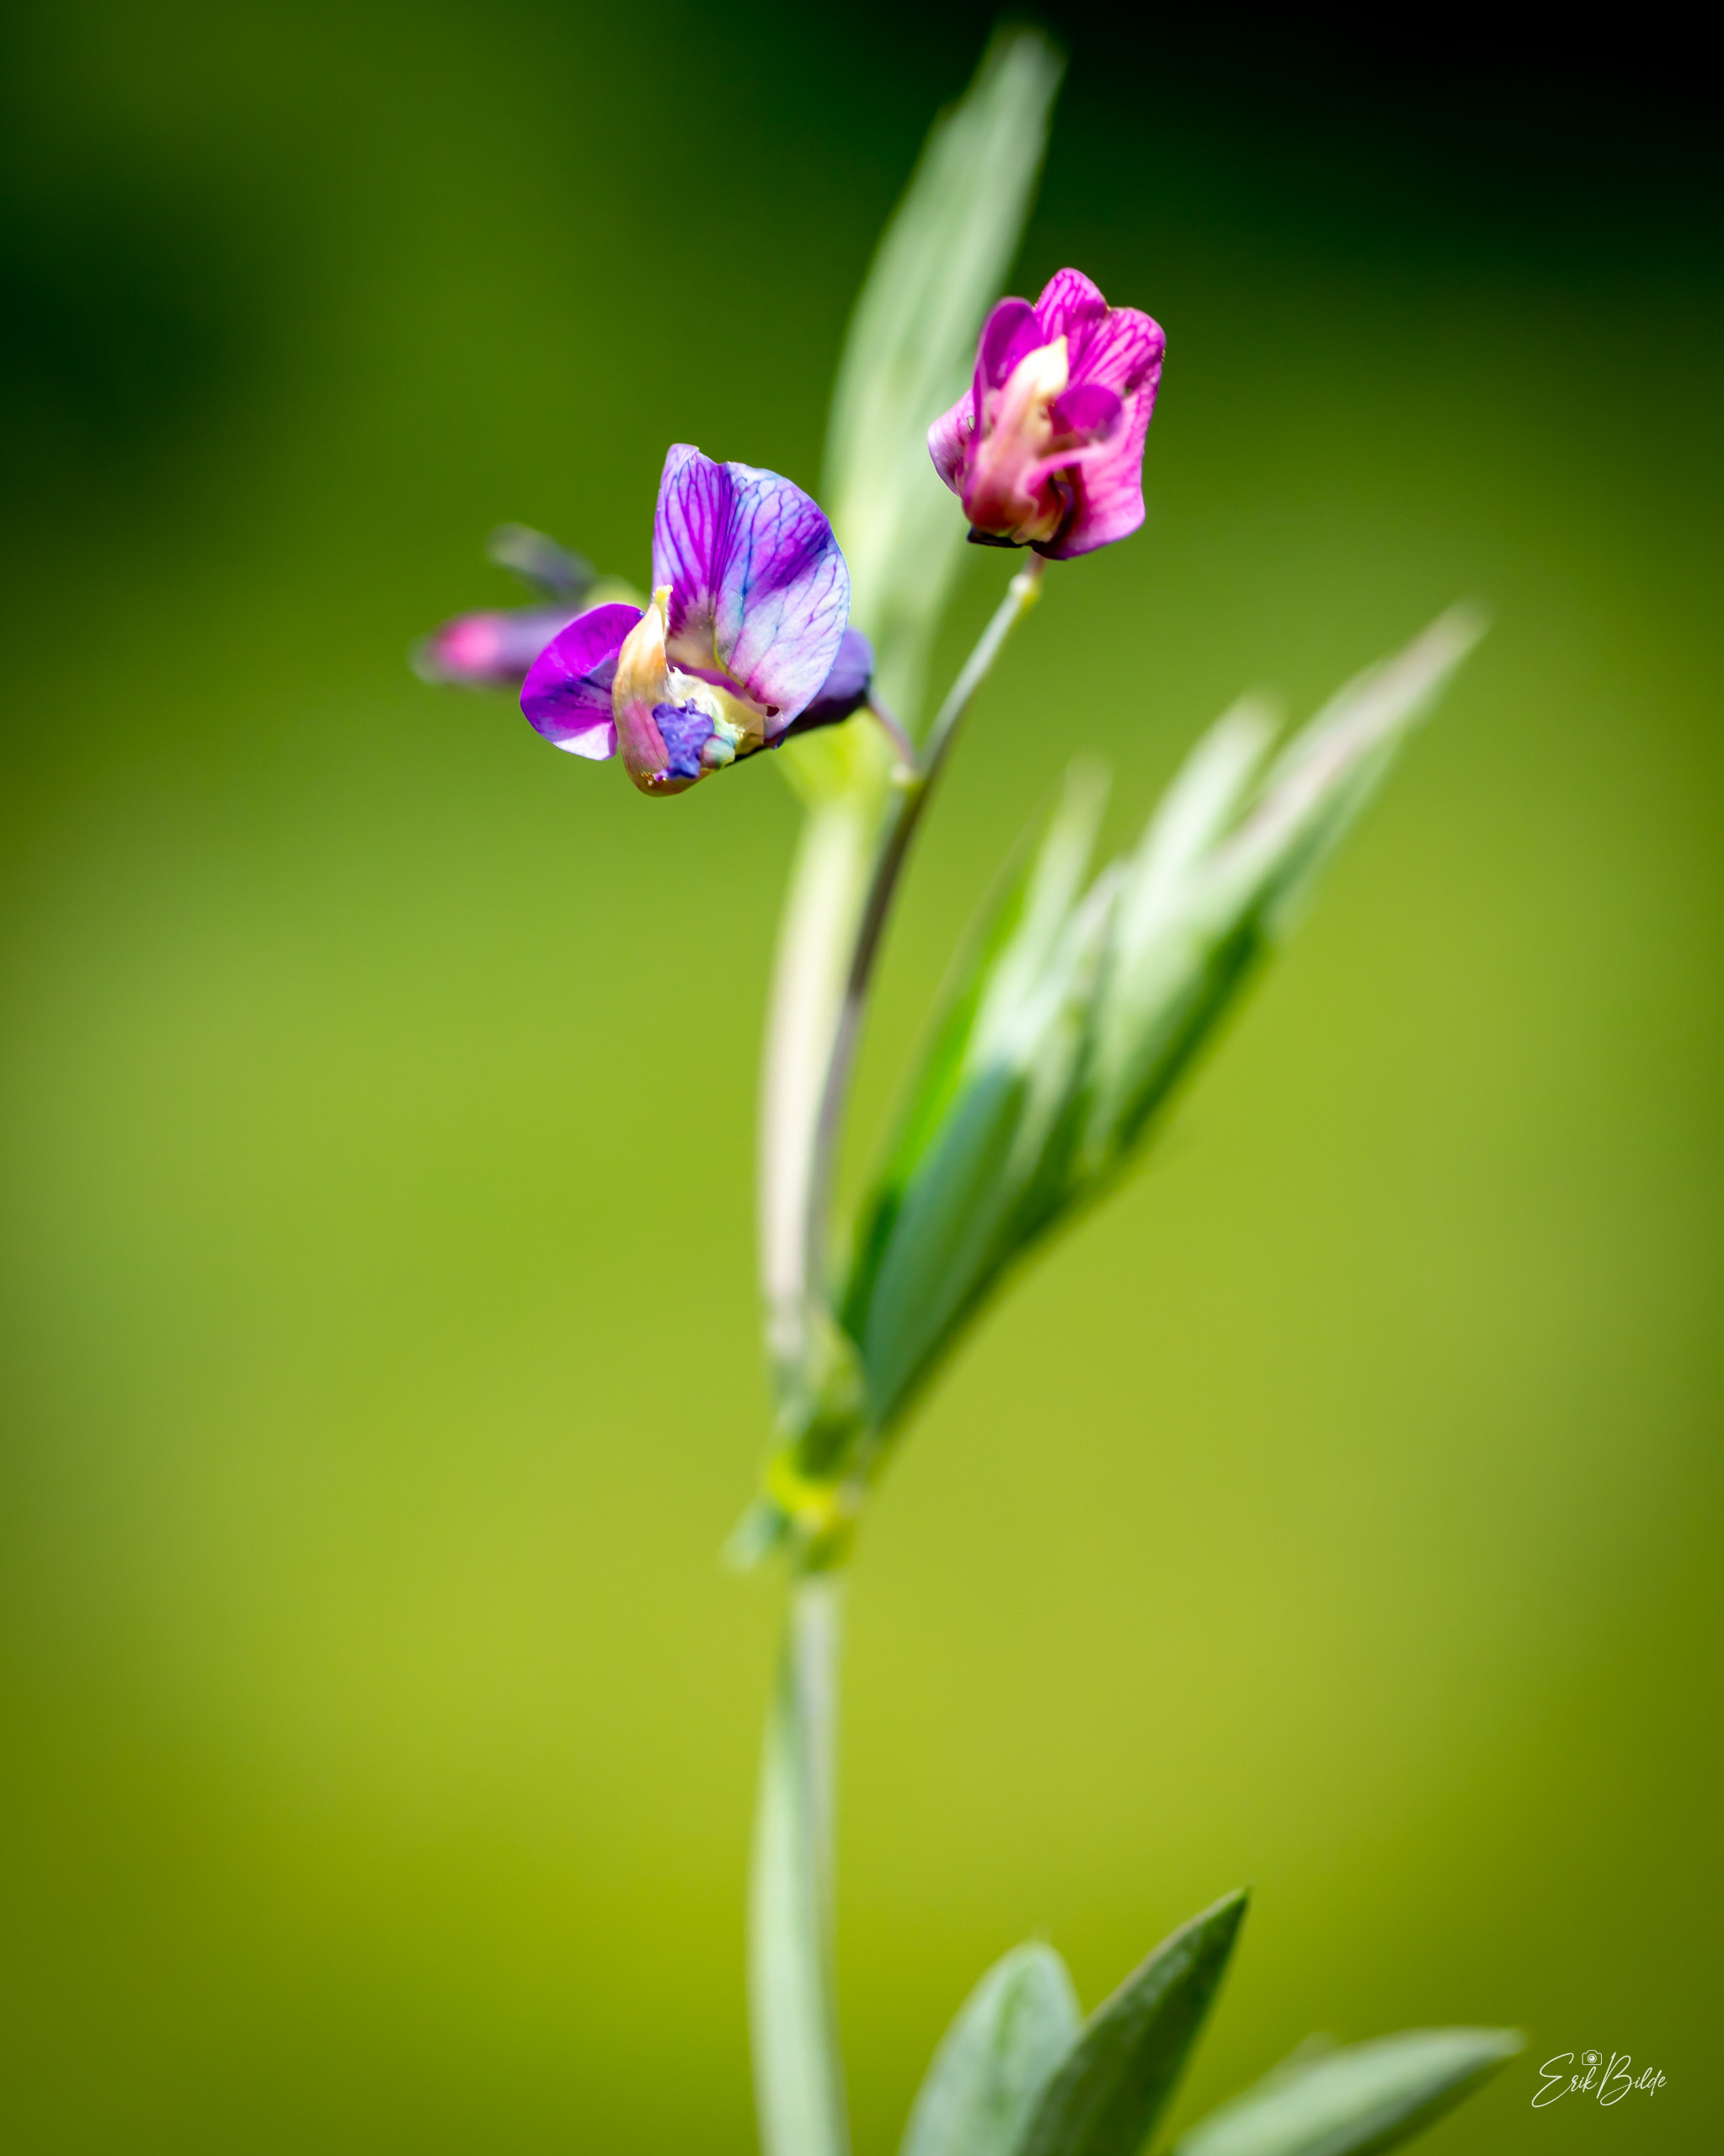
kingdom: Plantae
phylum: Tracheophyta
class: Magnoliopsida
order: Fabales
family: Fabaceae
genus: Lathyrus
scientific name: Lathyrus linifolius
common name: Krat-fladbælg
